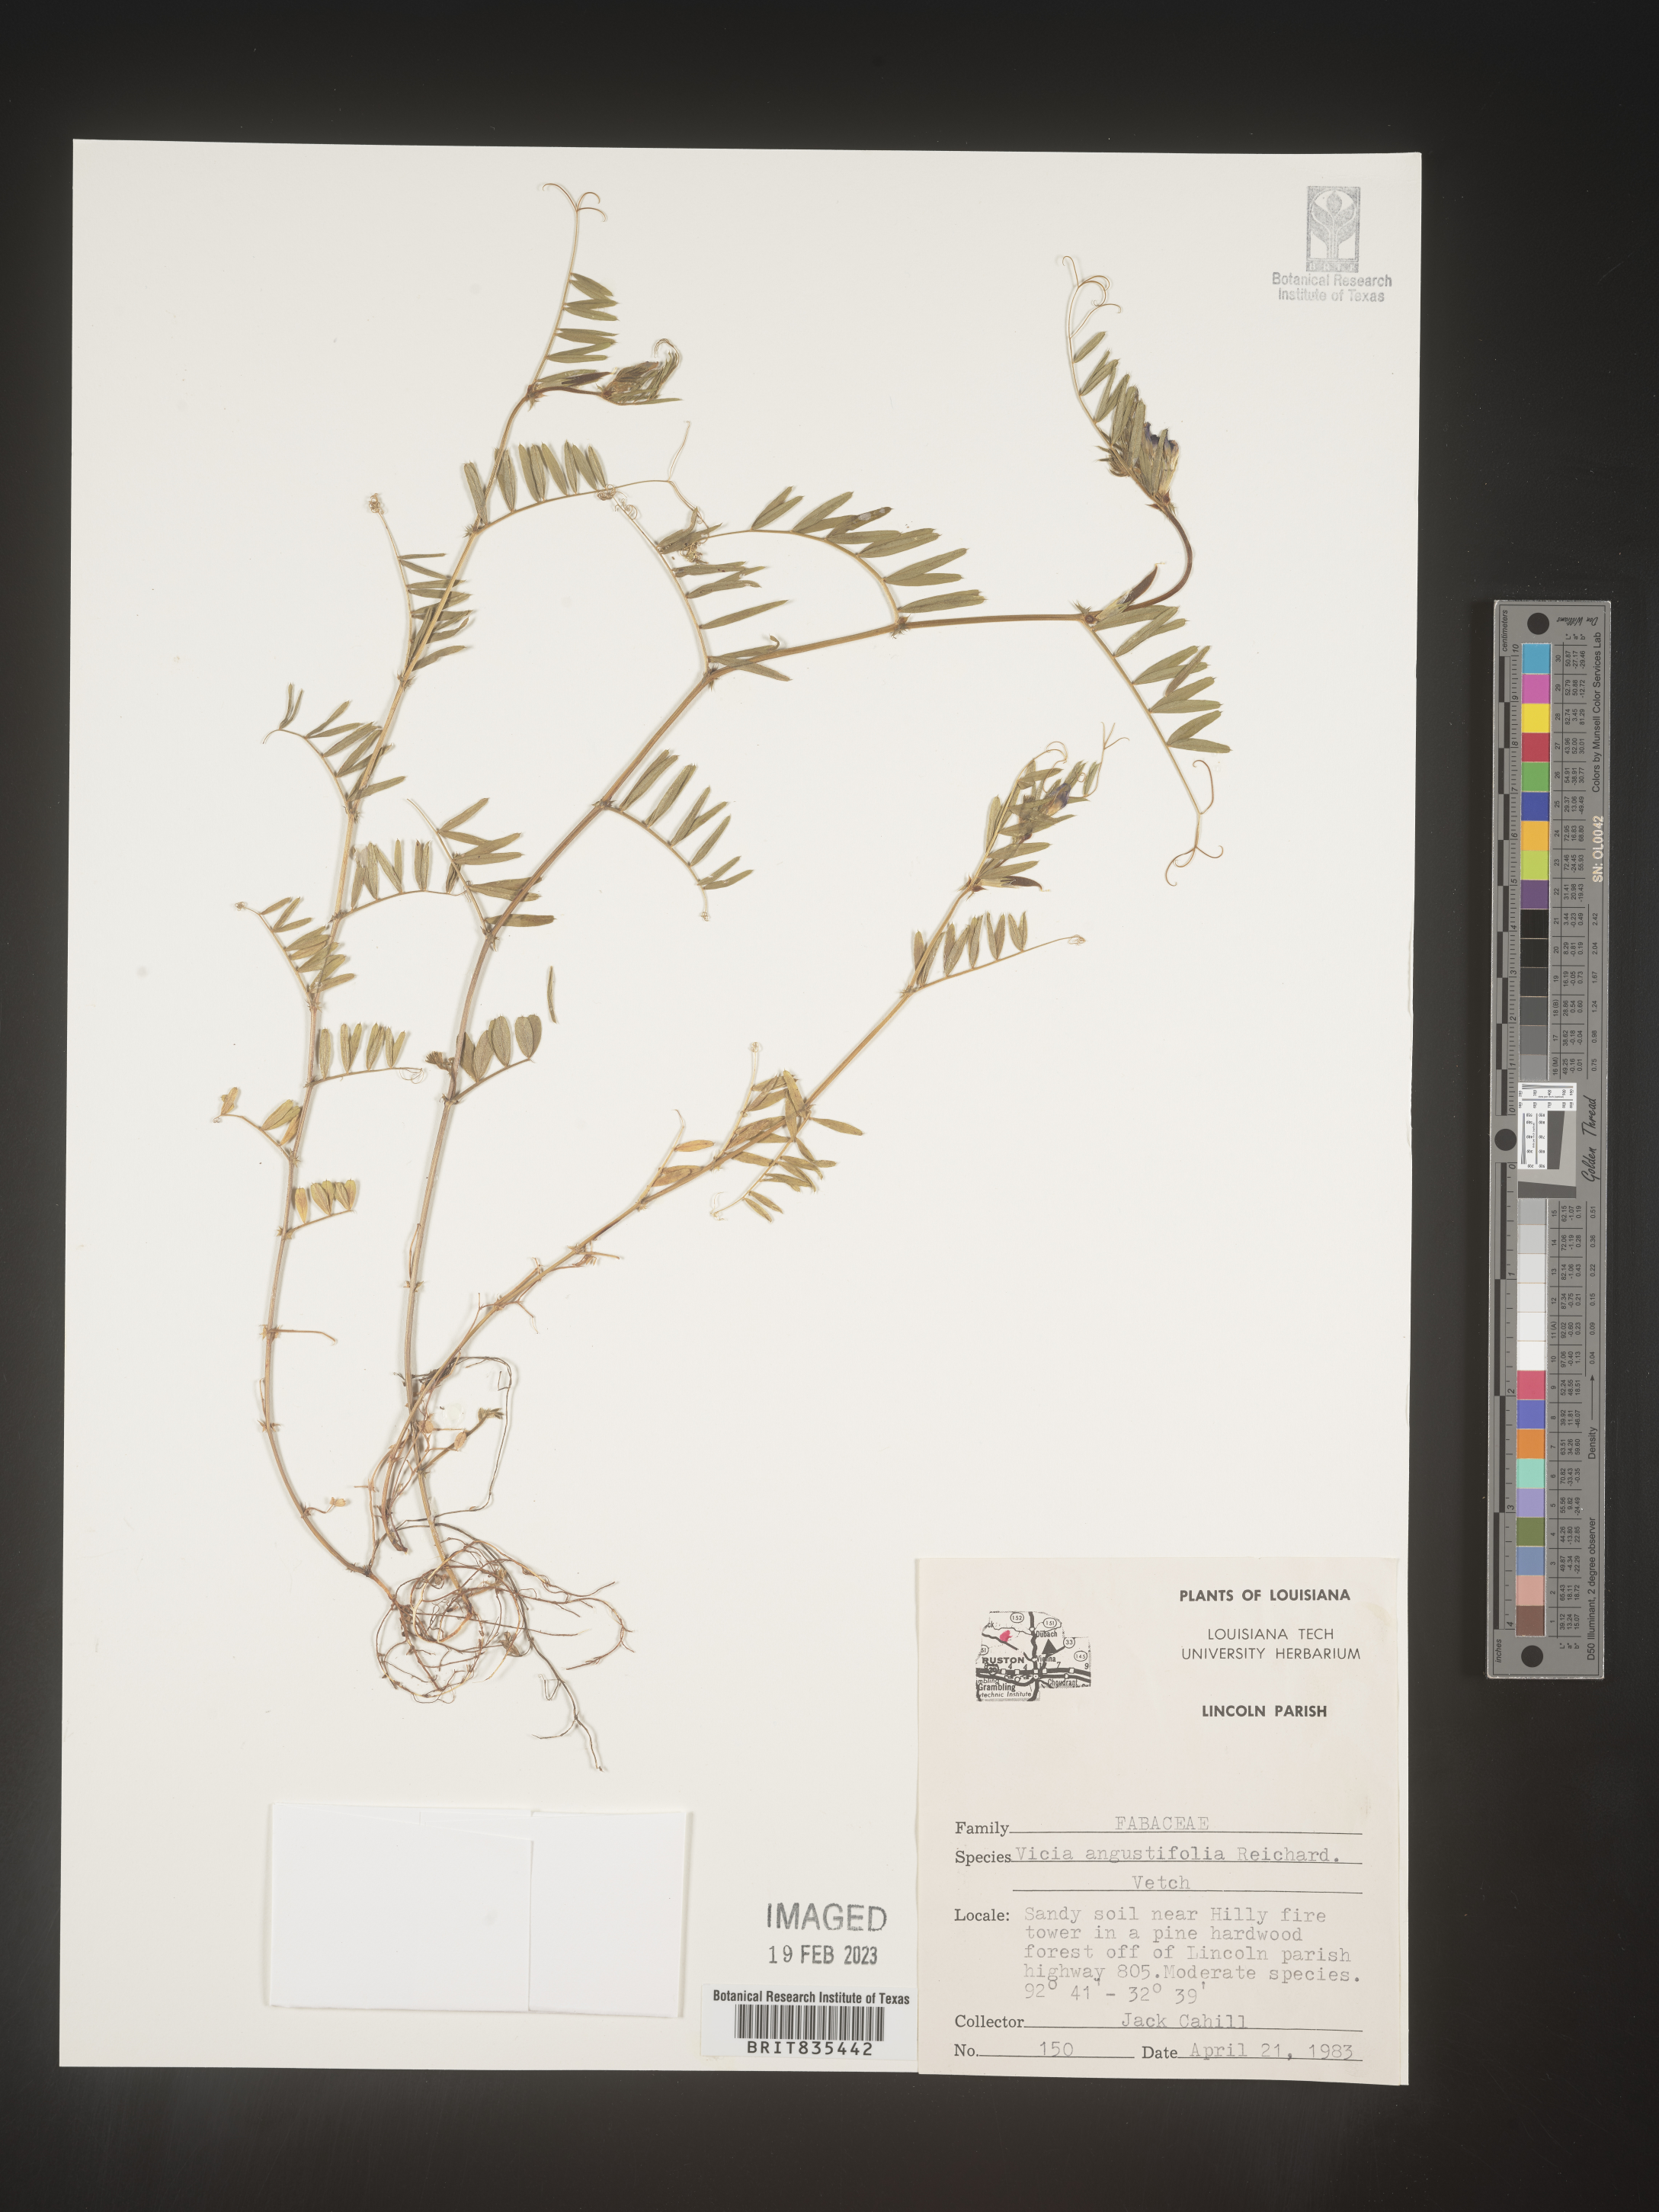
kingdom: Plantae
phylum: Tracheophyta
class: Magnoliopsida
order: Fabales
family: Fabaceae
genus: Vicia
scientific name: Vicia sativa
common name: Garden vetch
